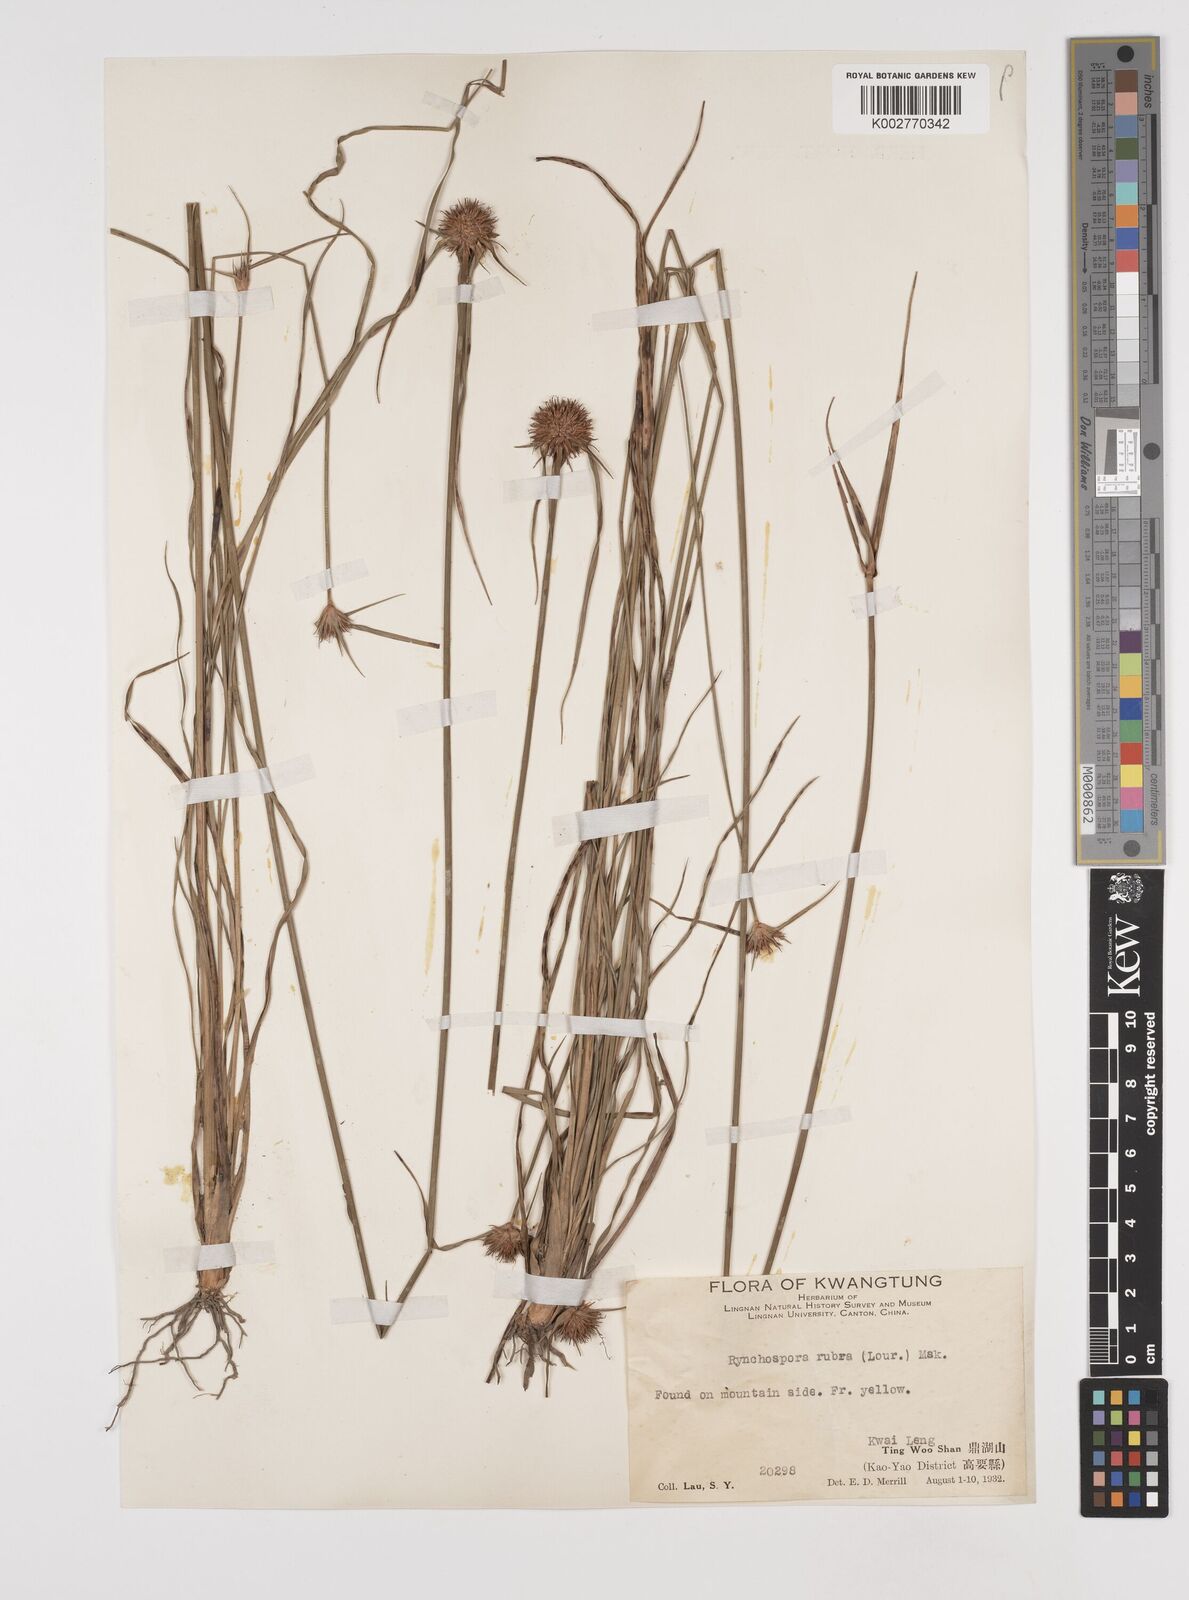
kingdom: Plantae
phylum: Tracheophyta
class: Liliopsida
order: Poales
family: Cyperaceae
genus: Rhynchospora
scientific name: Rhynchospora rubra
